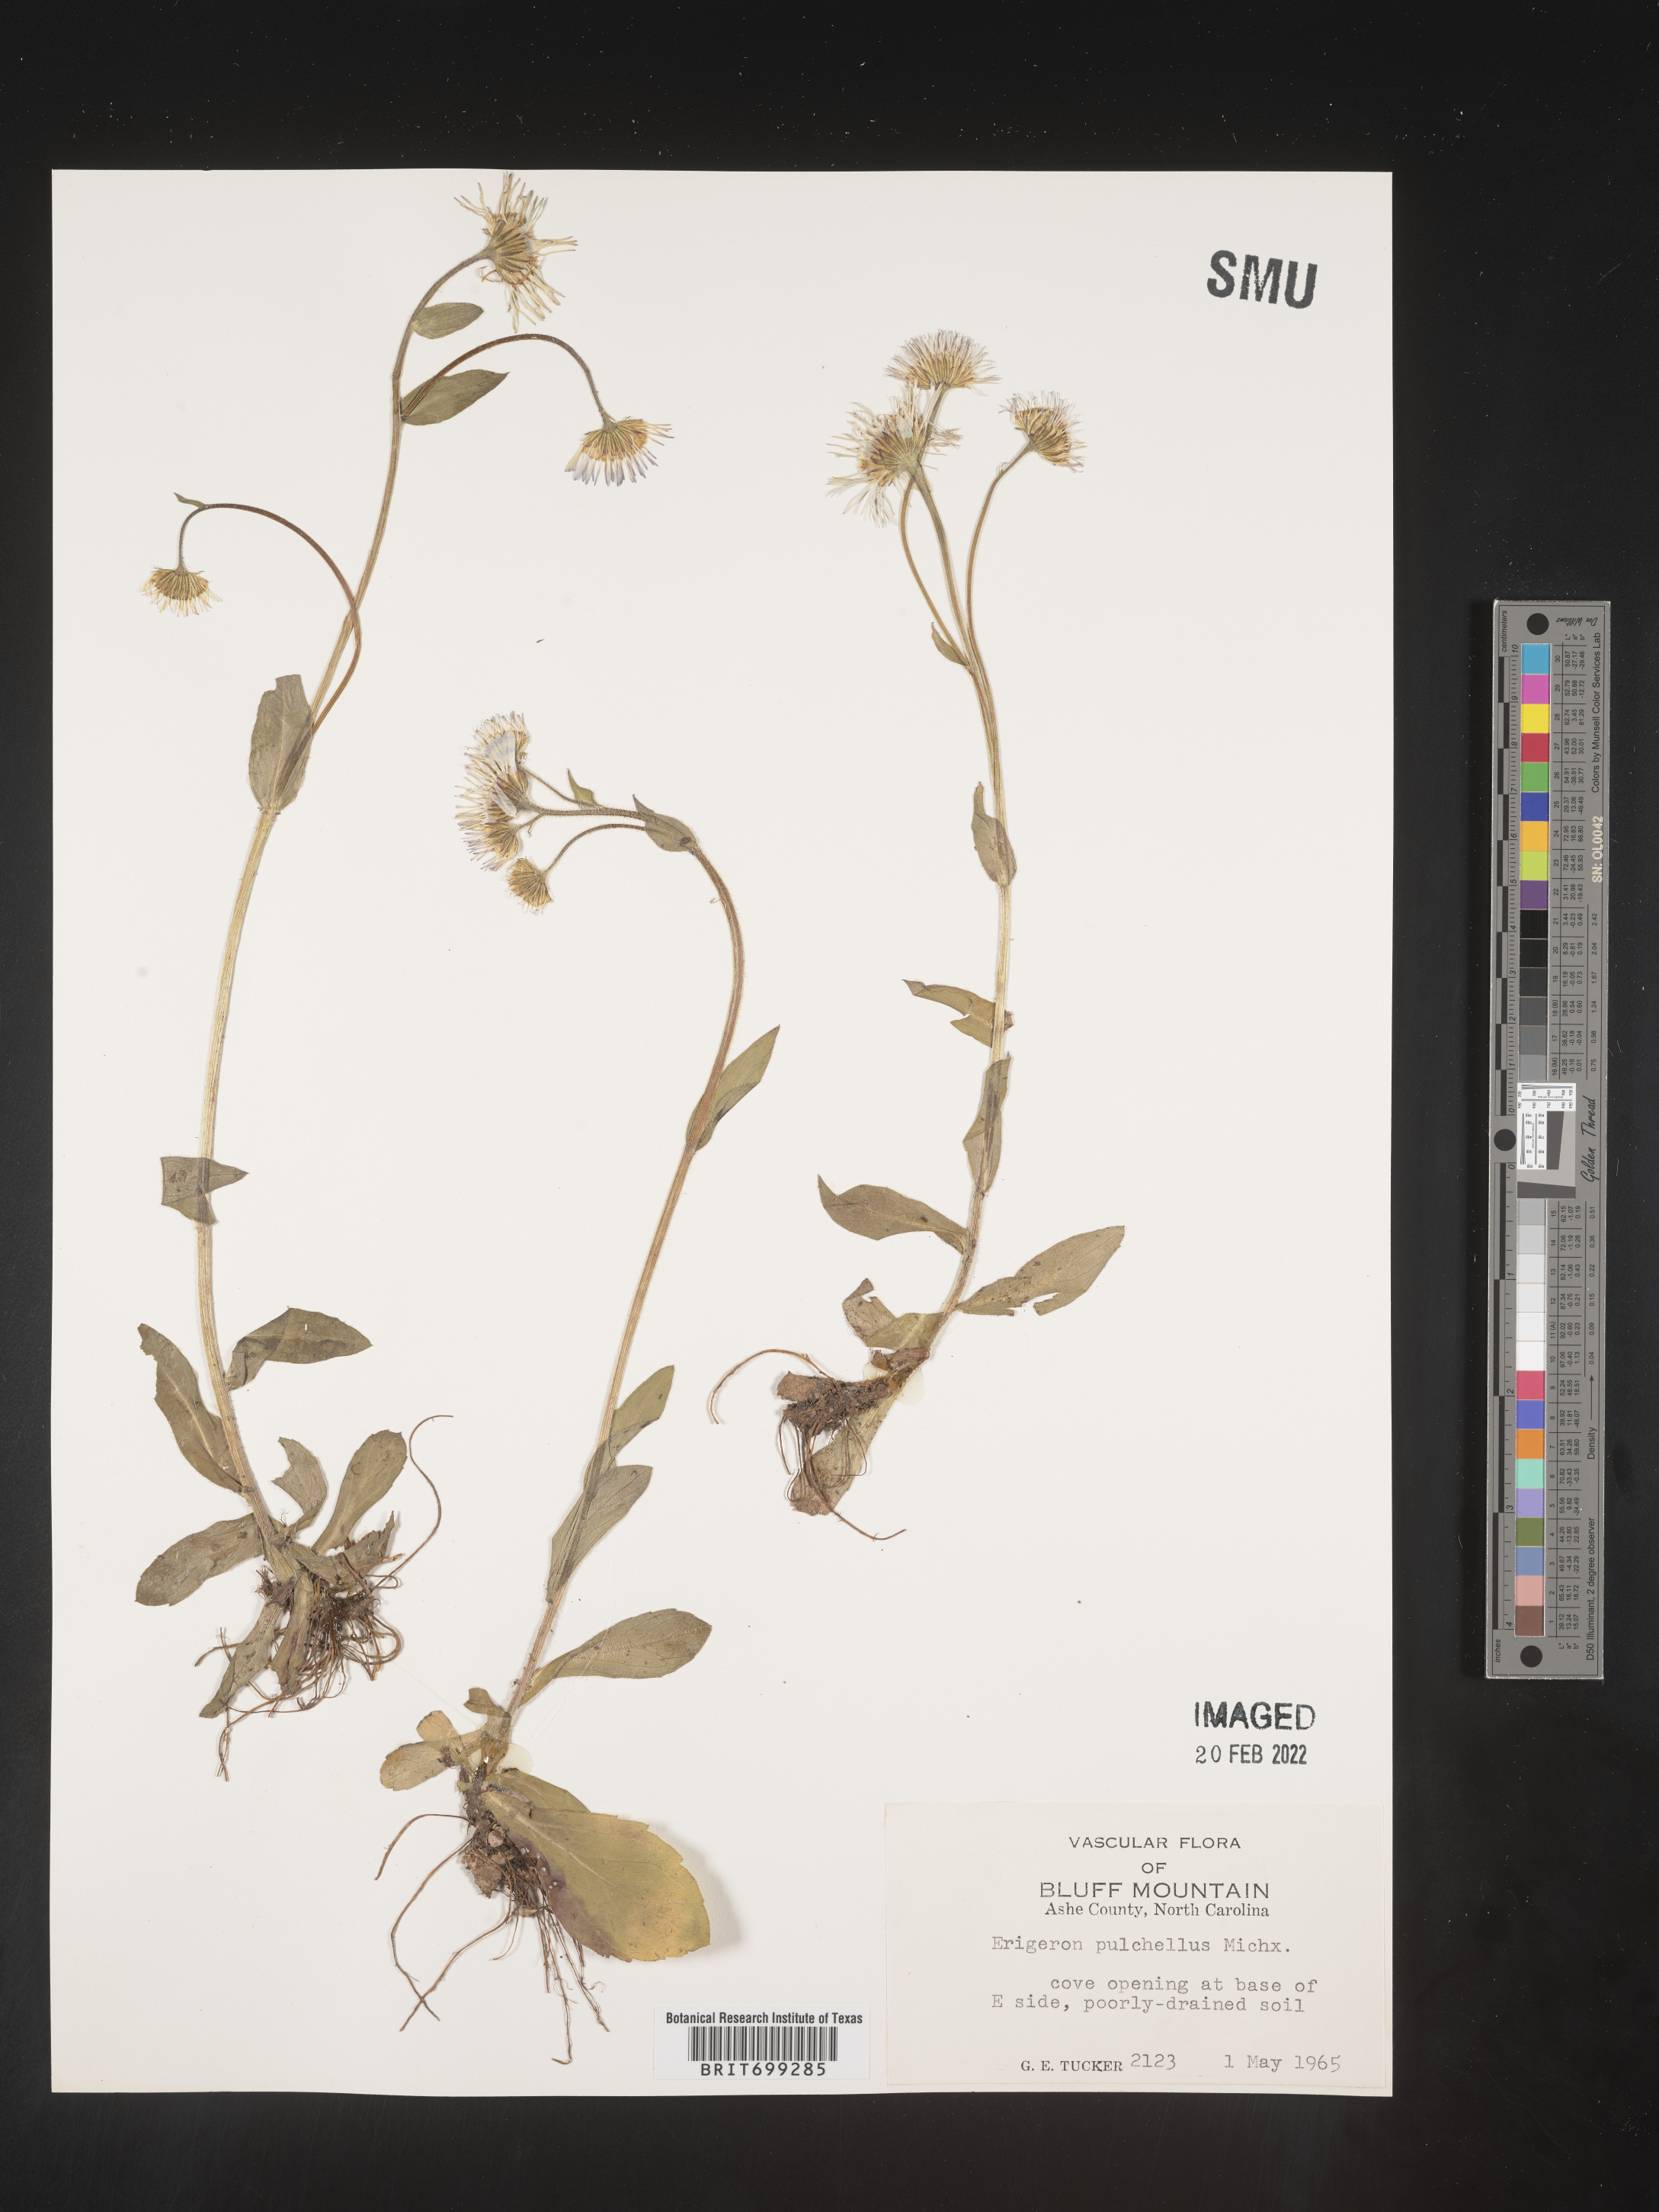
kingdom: Plantae
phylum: Tracheophyta
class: Magnoliopsida
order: Asterales
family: Asteraceae
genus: Erigeron
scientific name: Erigeron pulchellus
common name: Hairy fleabane
